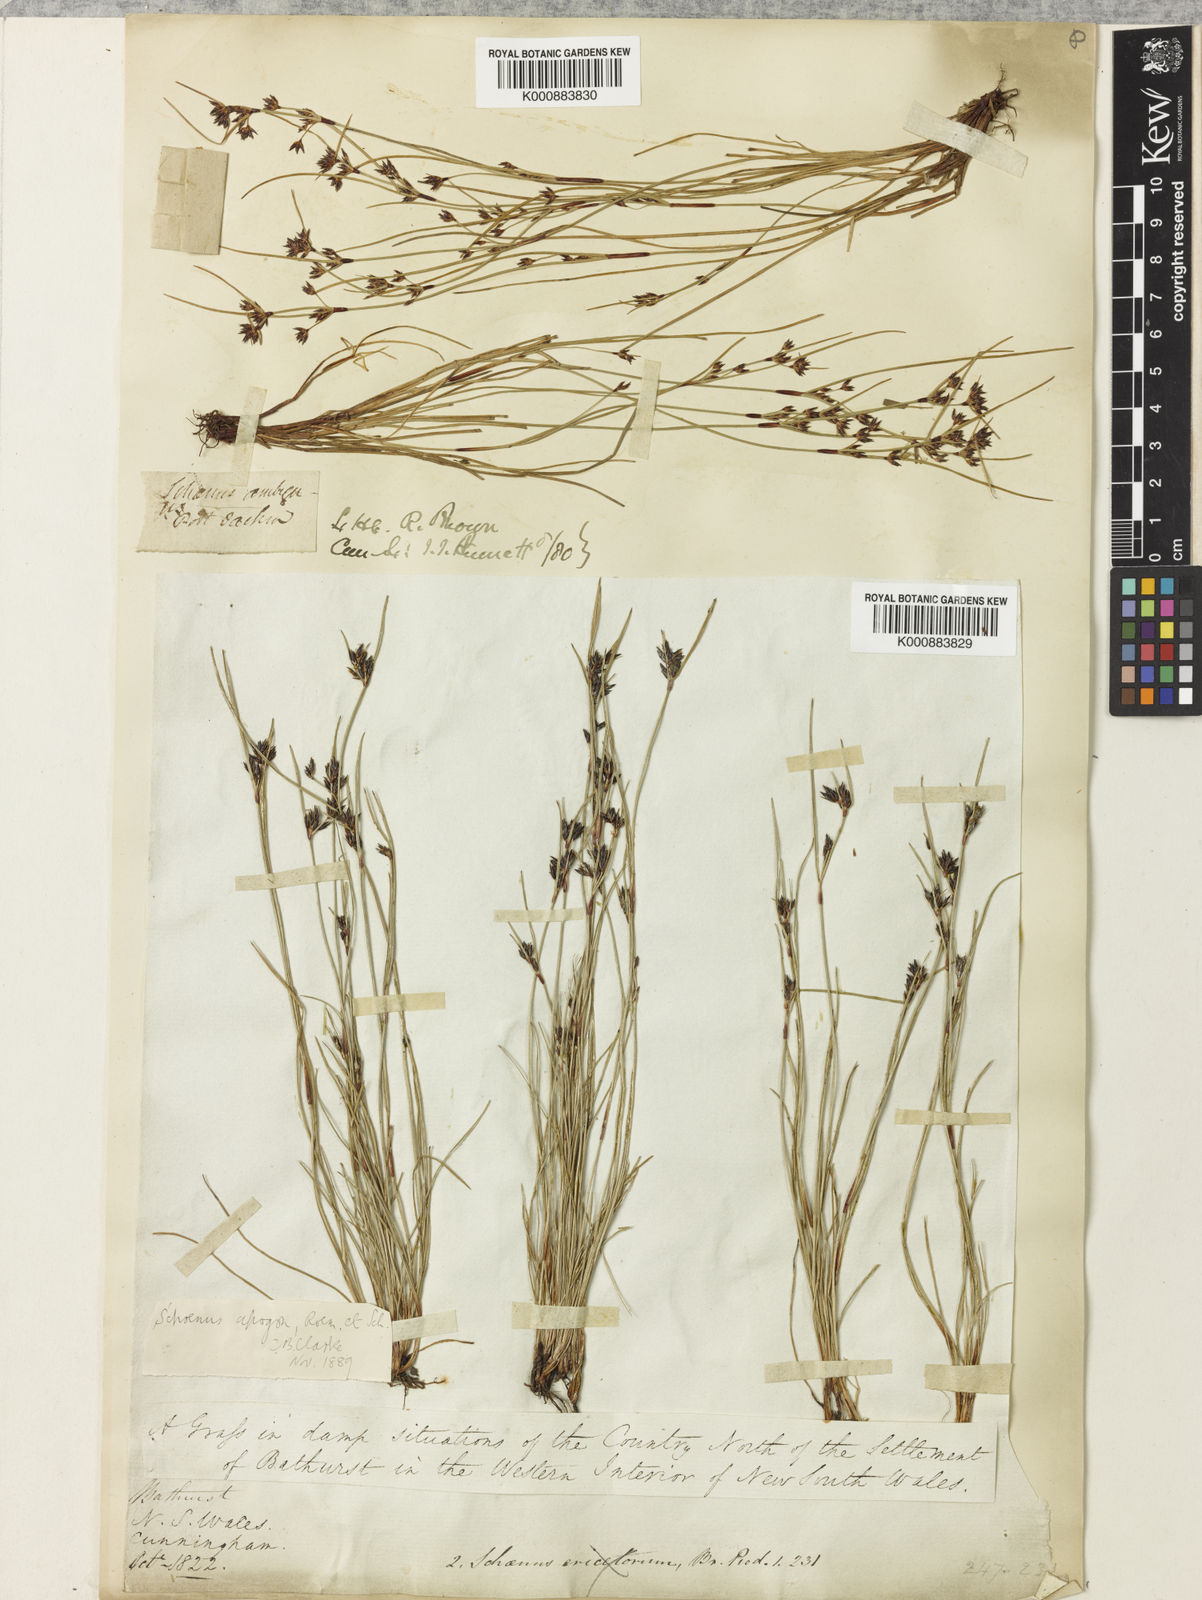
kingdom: Plantae
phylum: Tracheophyta
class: Liliopsida
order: Poales
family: Cyperaceae
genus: Schoenus
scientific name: Schoenus apogon
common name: Smooth bogrush
